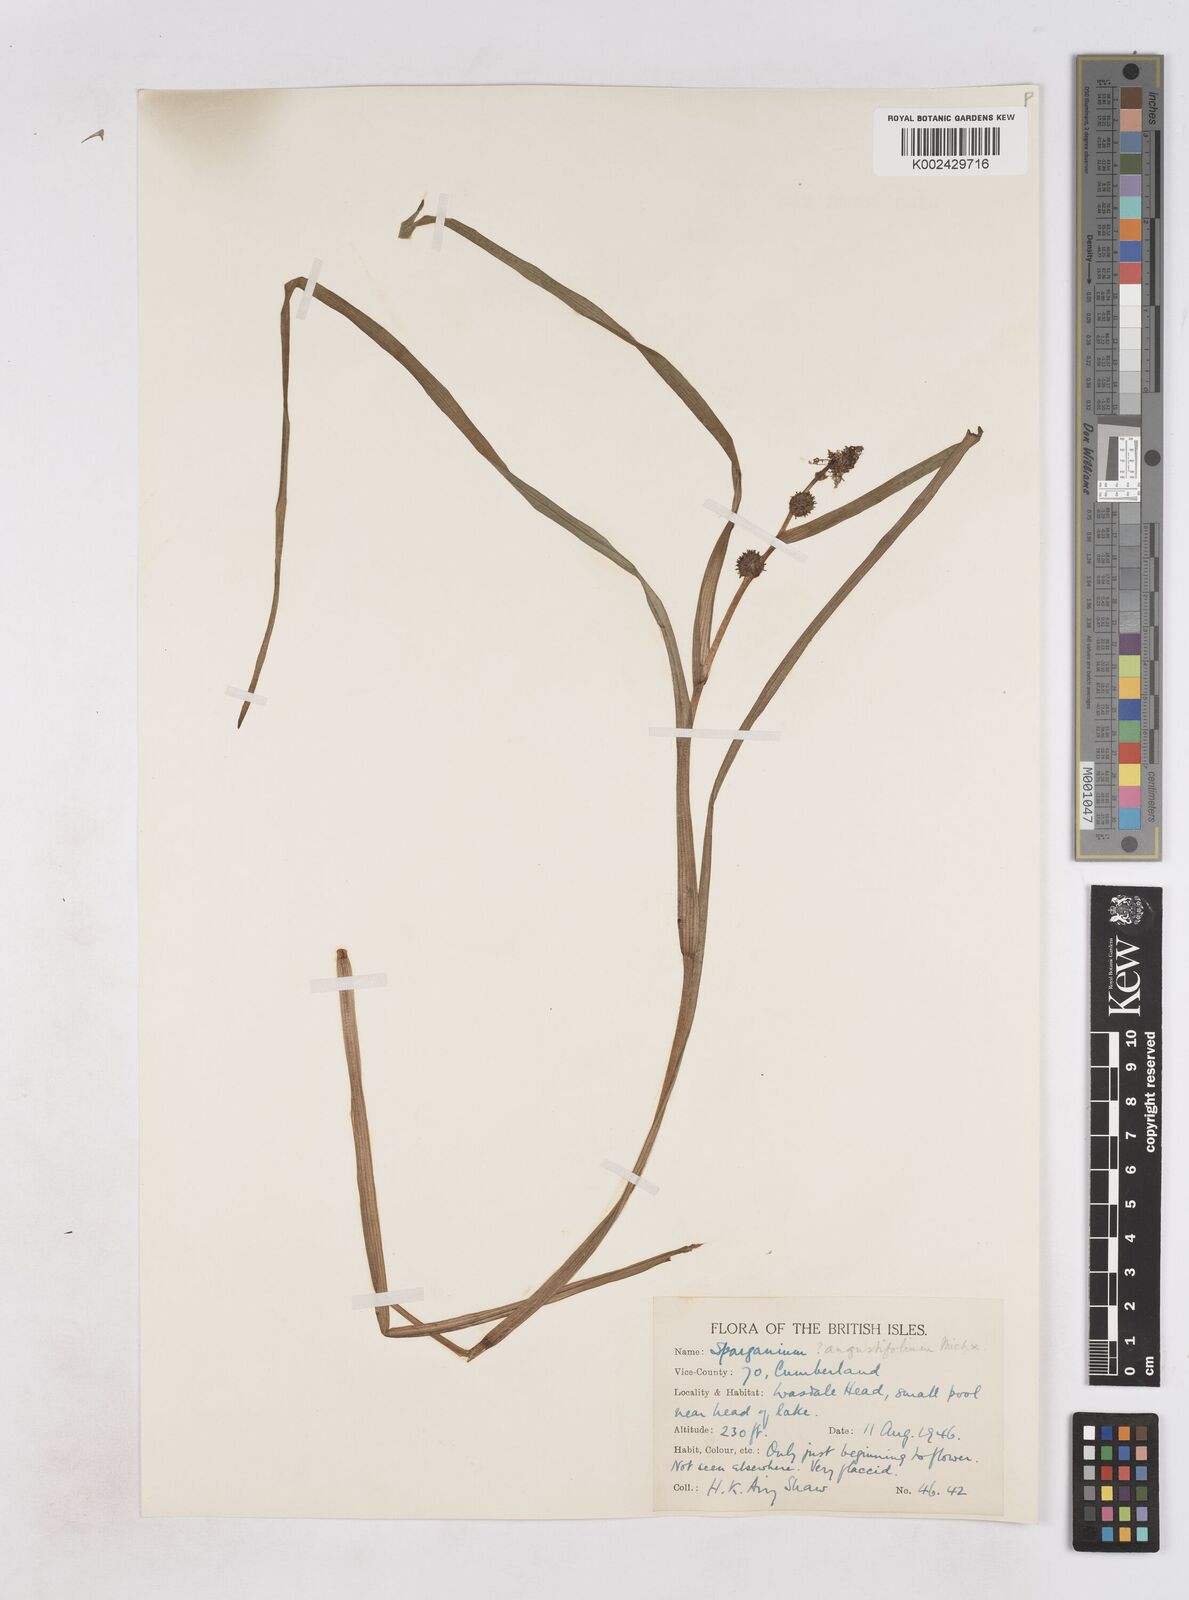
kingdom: Plantae
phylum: Tracheophyta
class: Liliopsida
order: Poales
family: Typhaceae
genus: Sparganium
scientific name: Sparganium angustifolium
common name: Floating bur-reed
